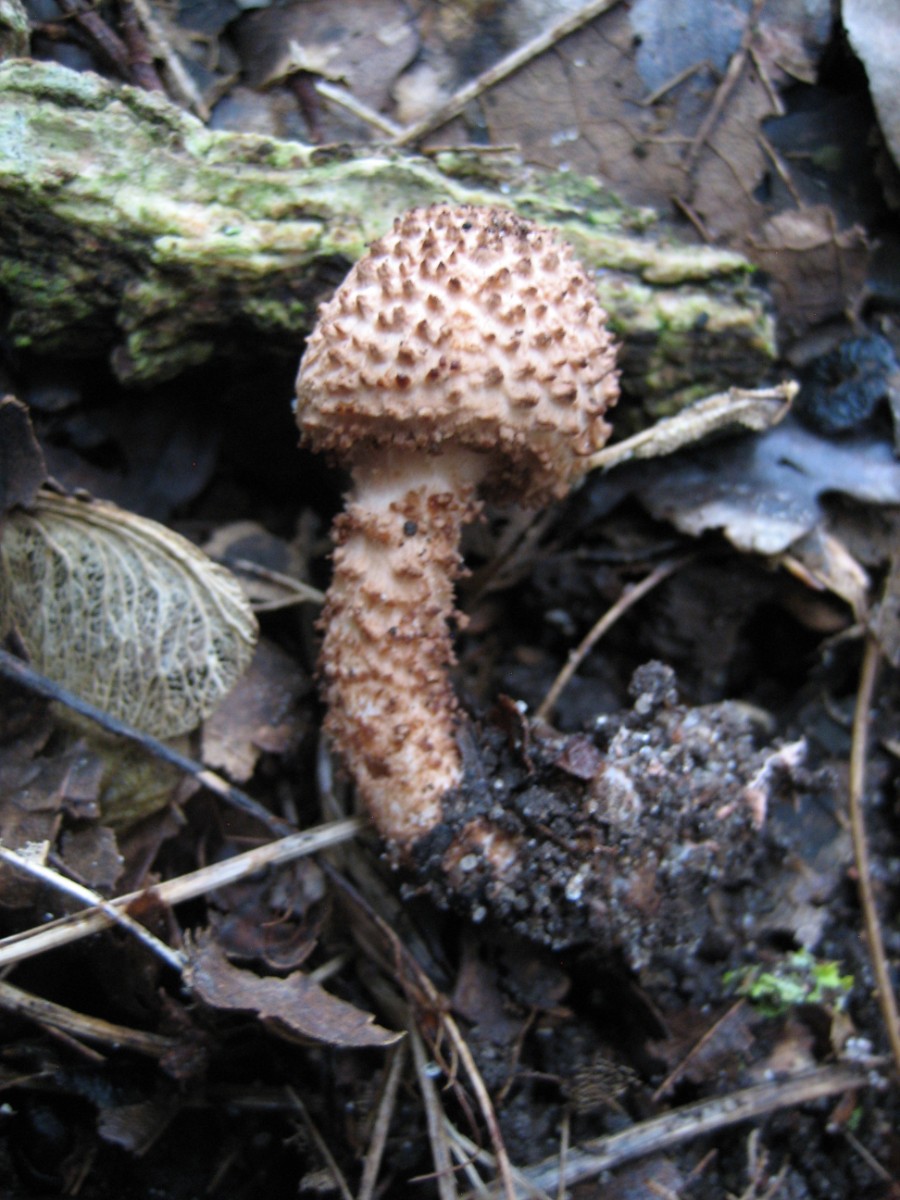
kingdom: Fungi
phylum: Basidiomycota
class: Agaricomycetes
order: Agaricales
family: Agaricaceae
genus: Echinoderma
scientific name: Echinoderma
